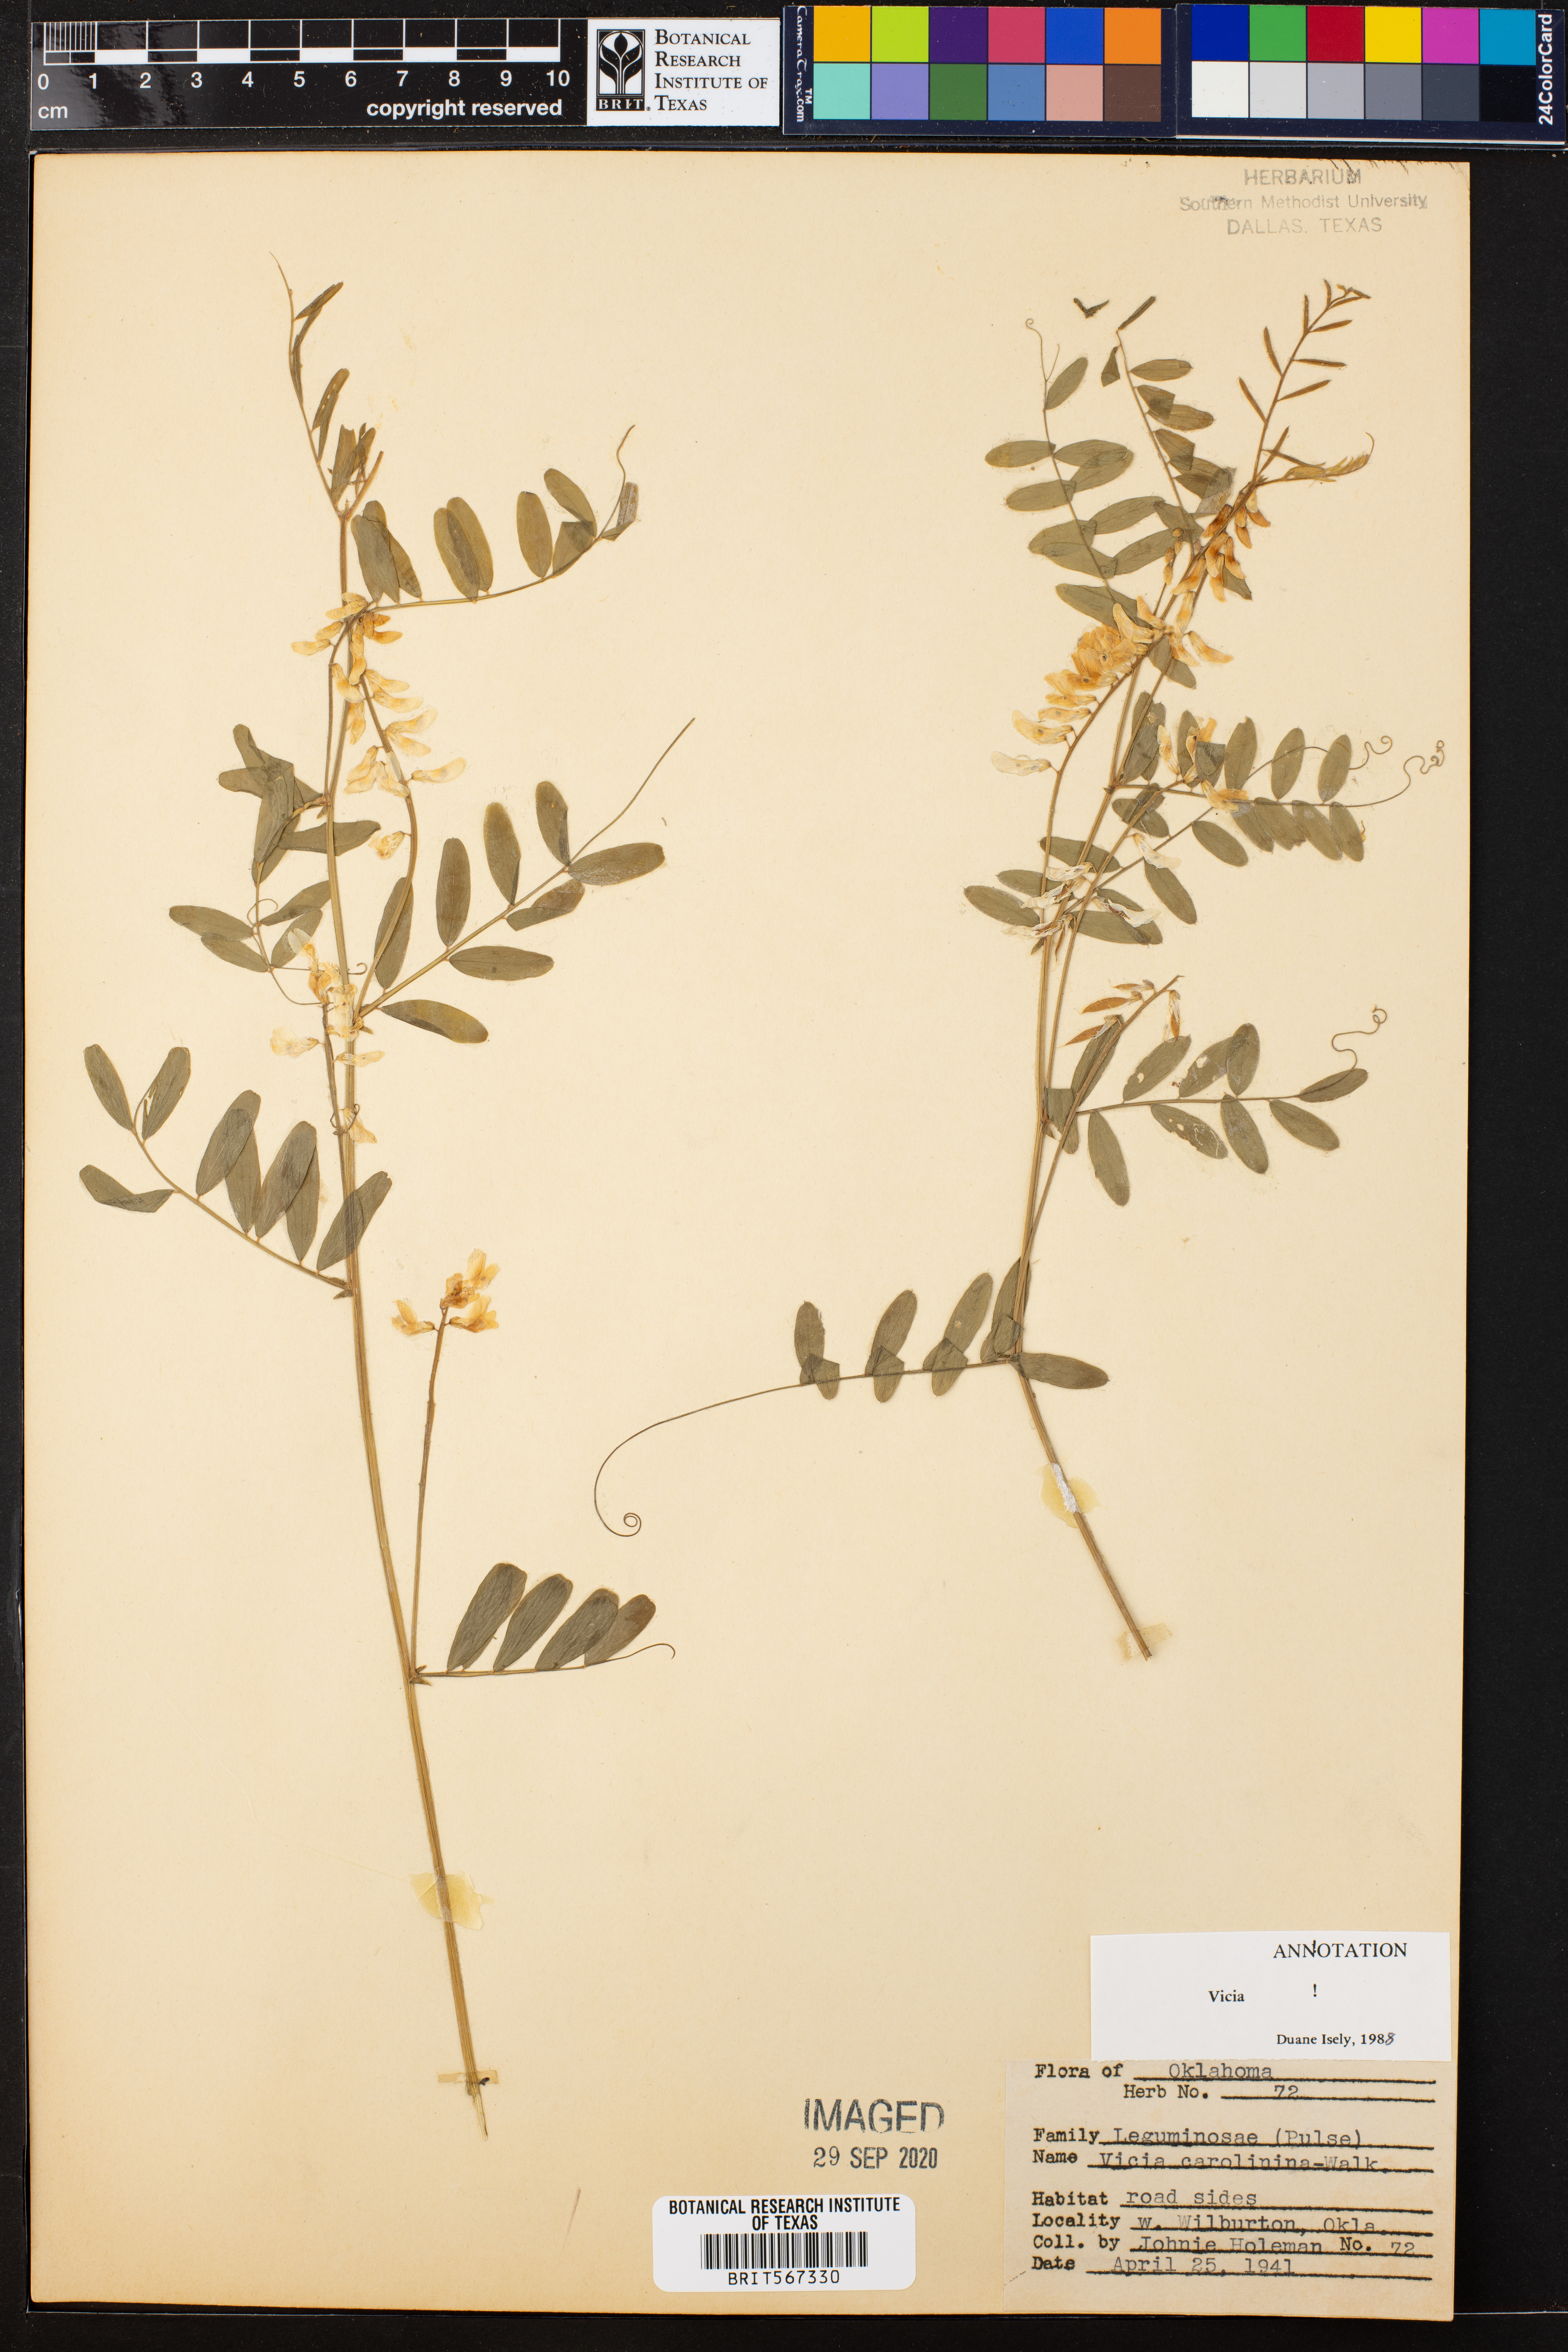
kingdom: Plantae
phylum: Tracheophyta
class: Magnoliopsida
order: Fabales
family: Fabaceae
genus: Vicia
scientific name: Vicia caroliniana
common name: Carolina vetch
